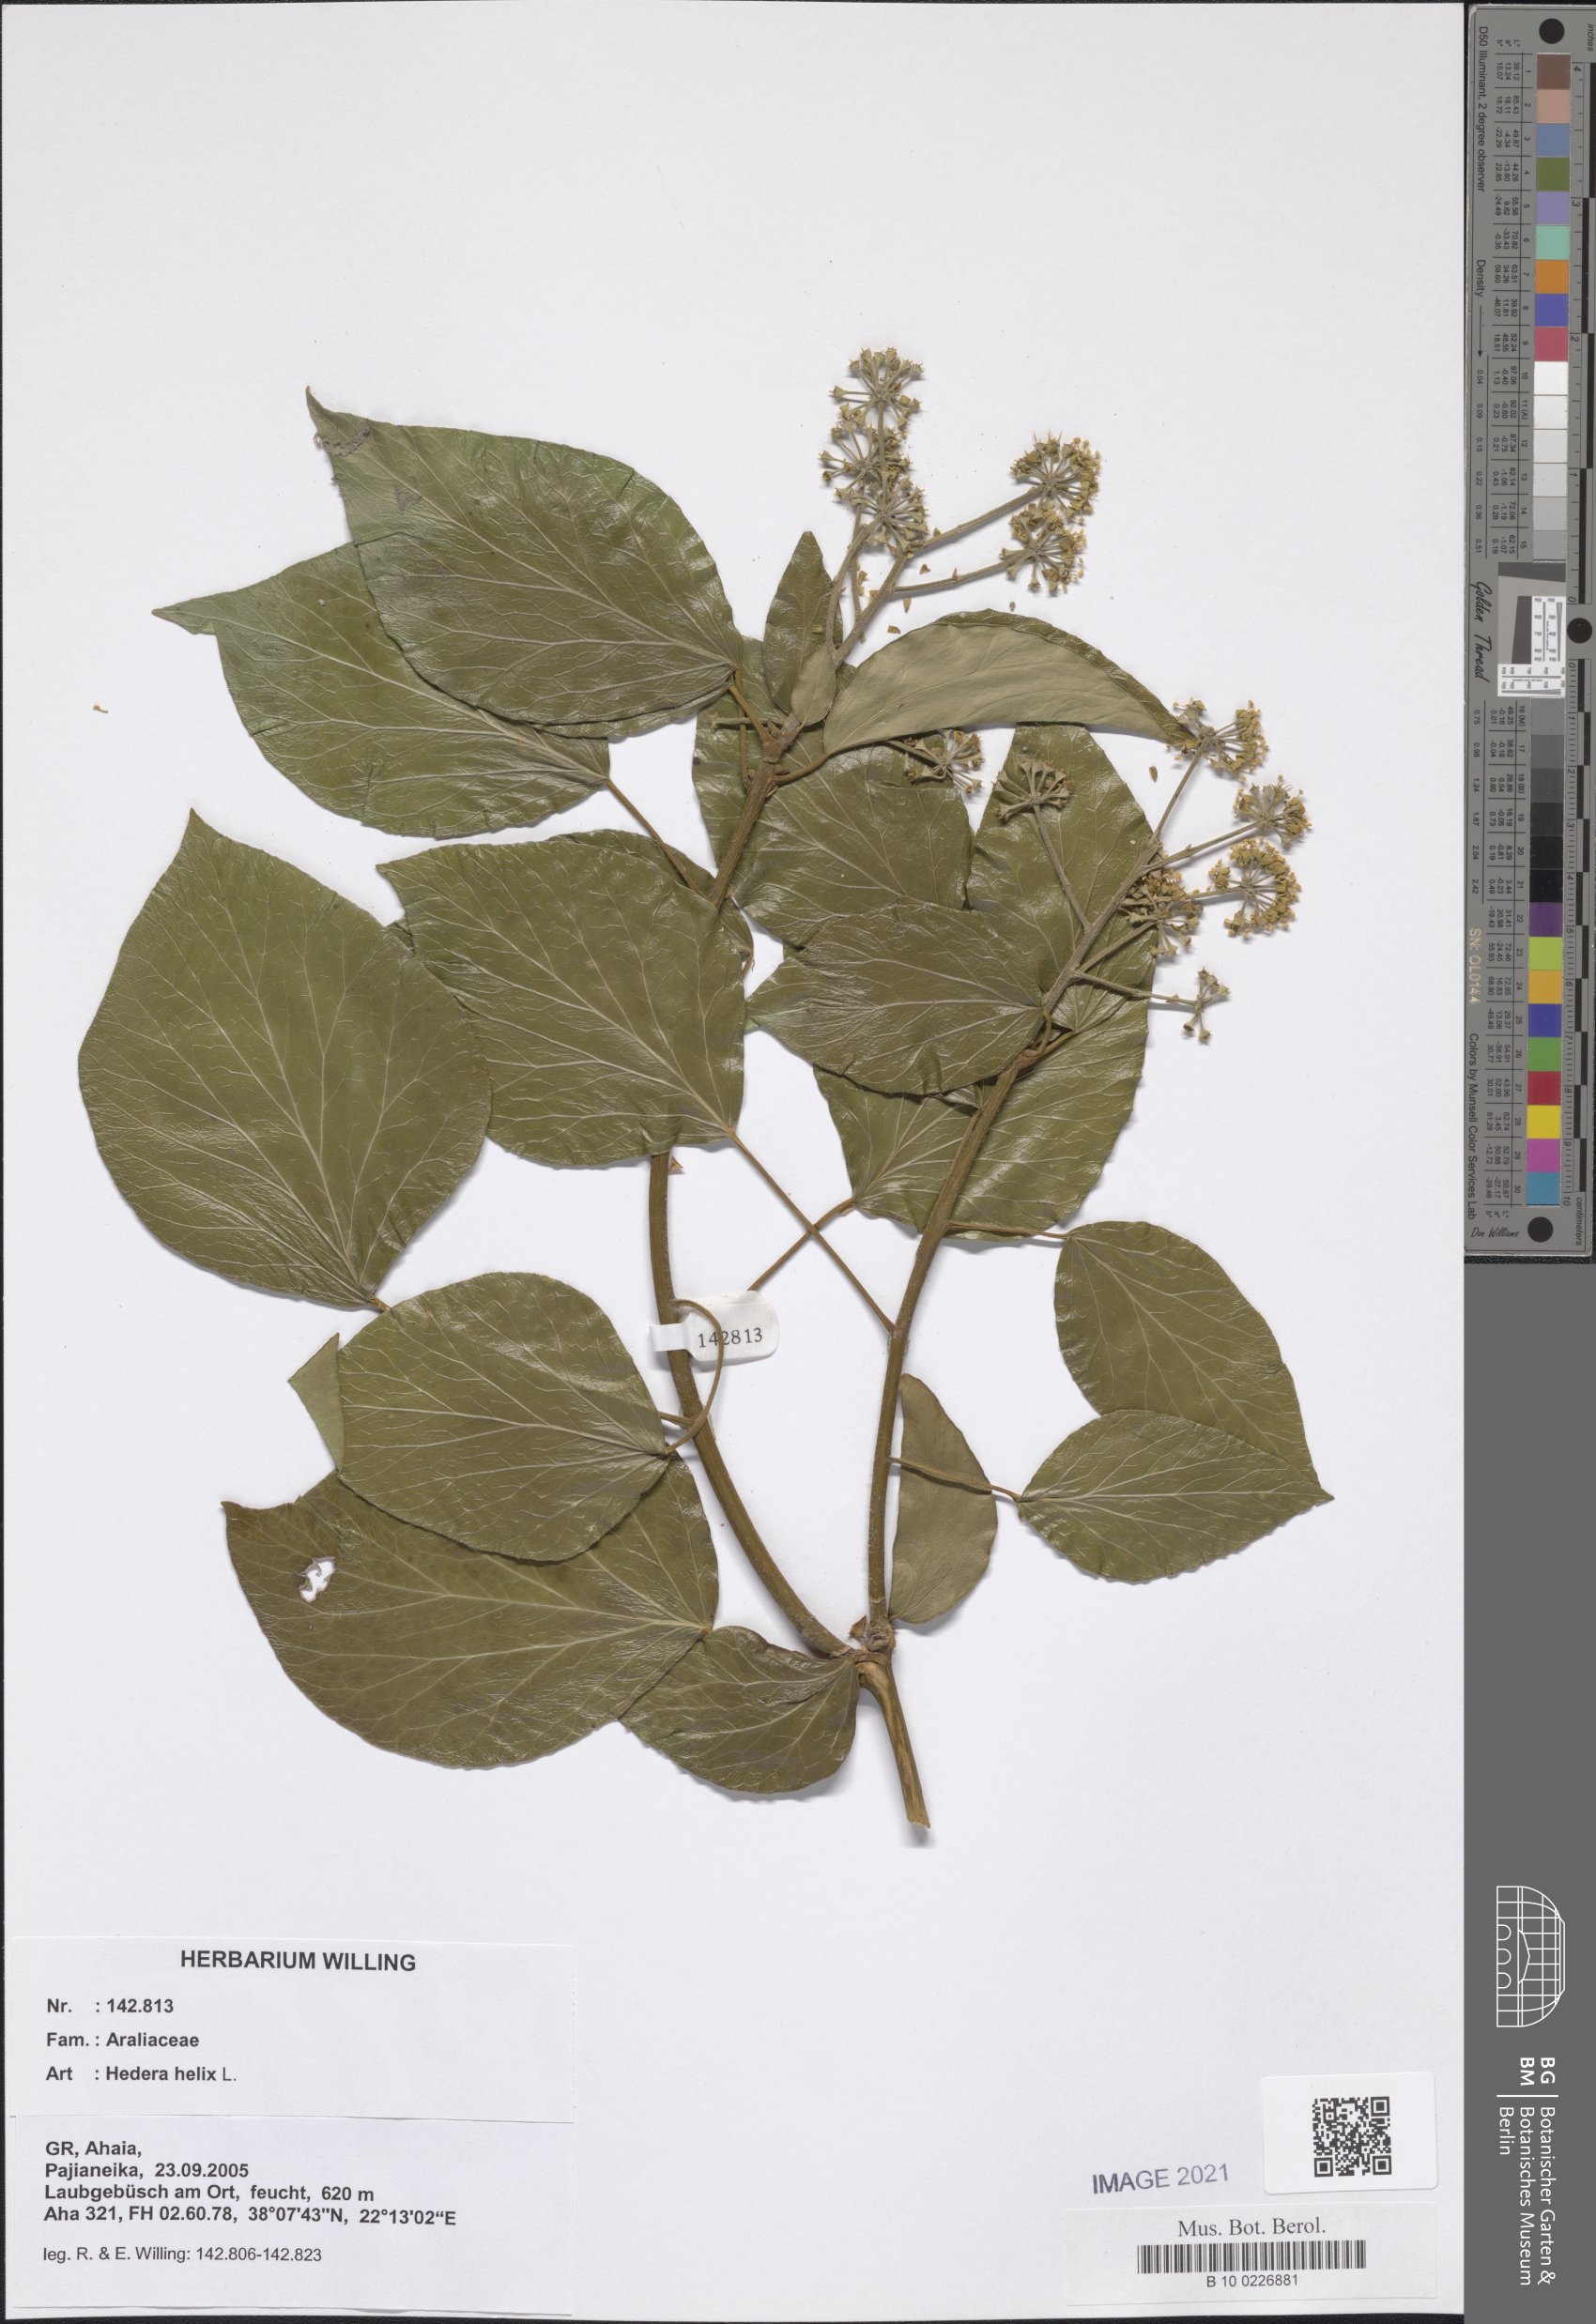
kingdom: Plantae
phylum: Tracheophyta
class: Magnoliopsida
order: Apiales
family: Araliaceae
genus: Hedera
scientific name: Hedera helix
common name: Ivy
